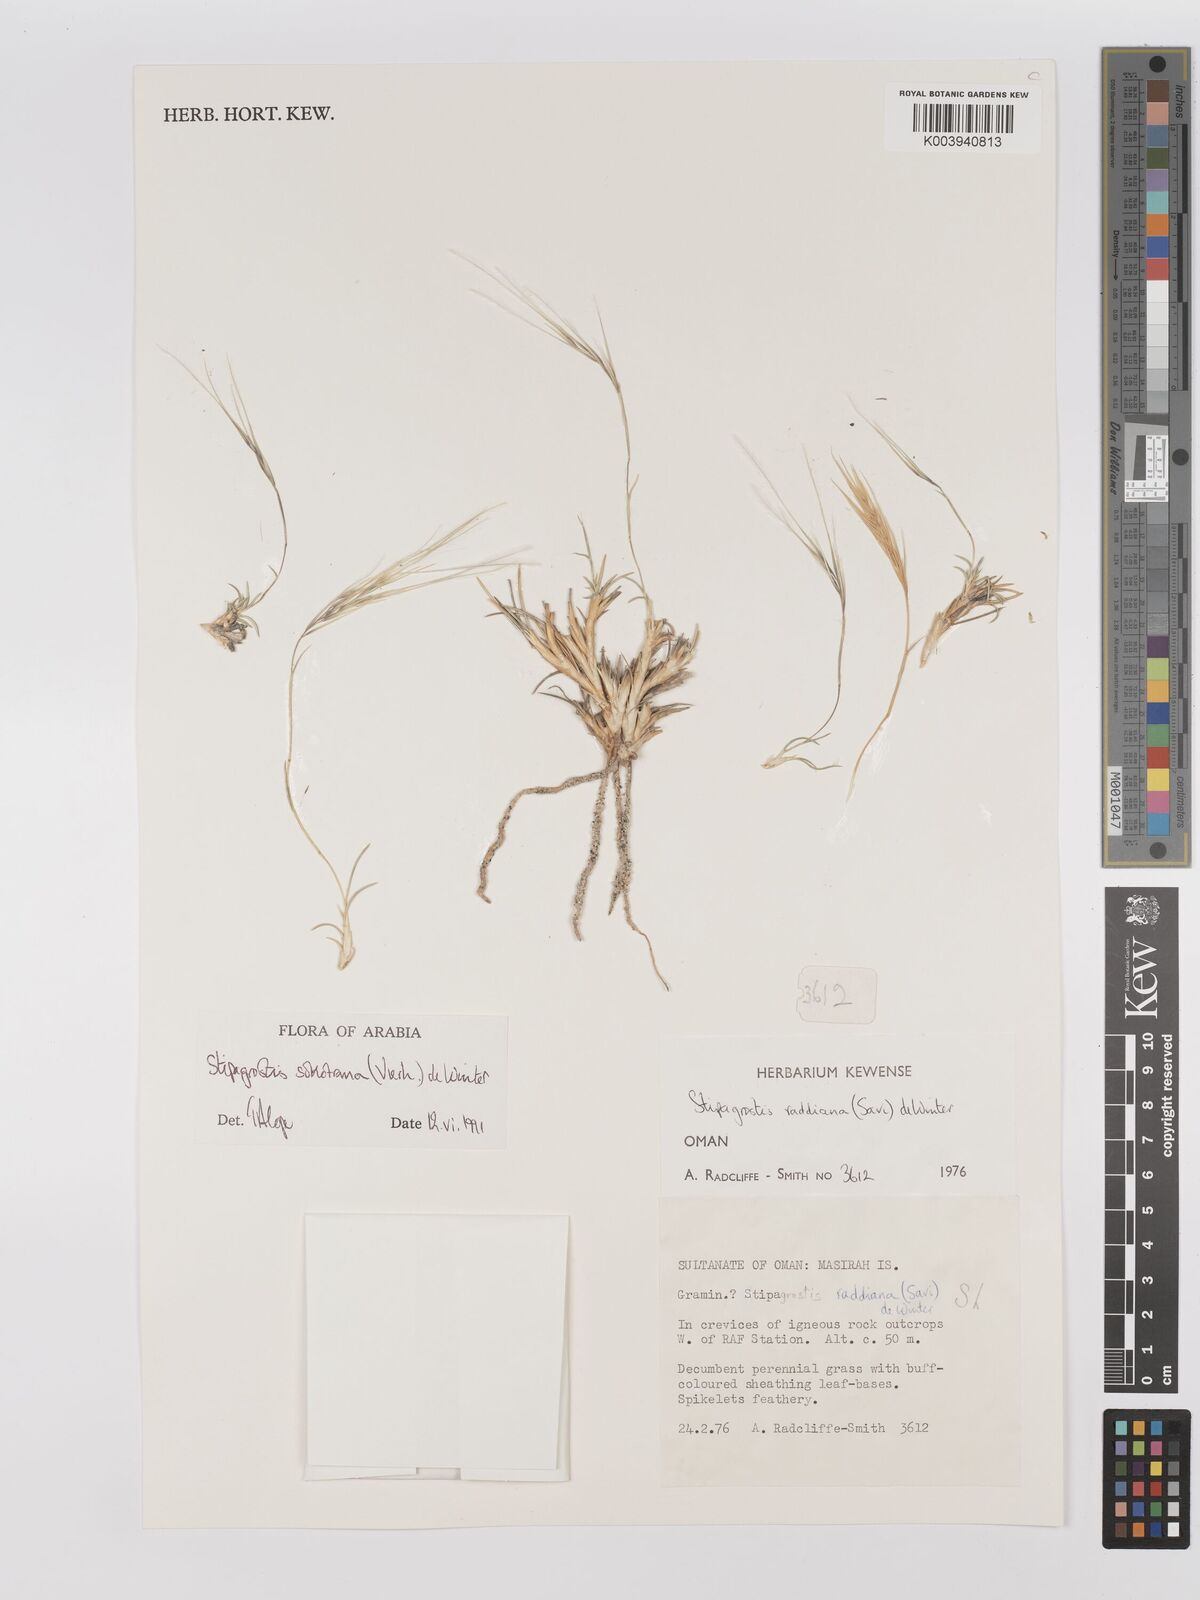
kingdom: Plantae
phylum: Tracheophyta
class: Liliopsida
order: Poales
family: Poaceae
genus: Stipagrostis
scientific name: Stipagrostis sokotrana
